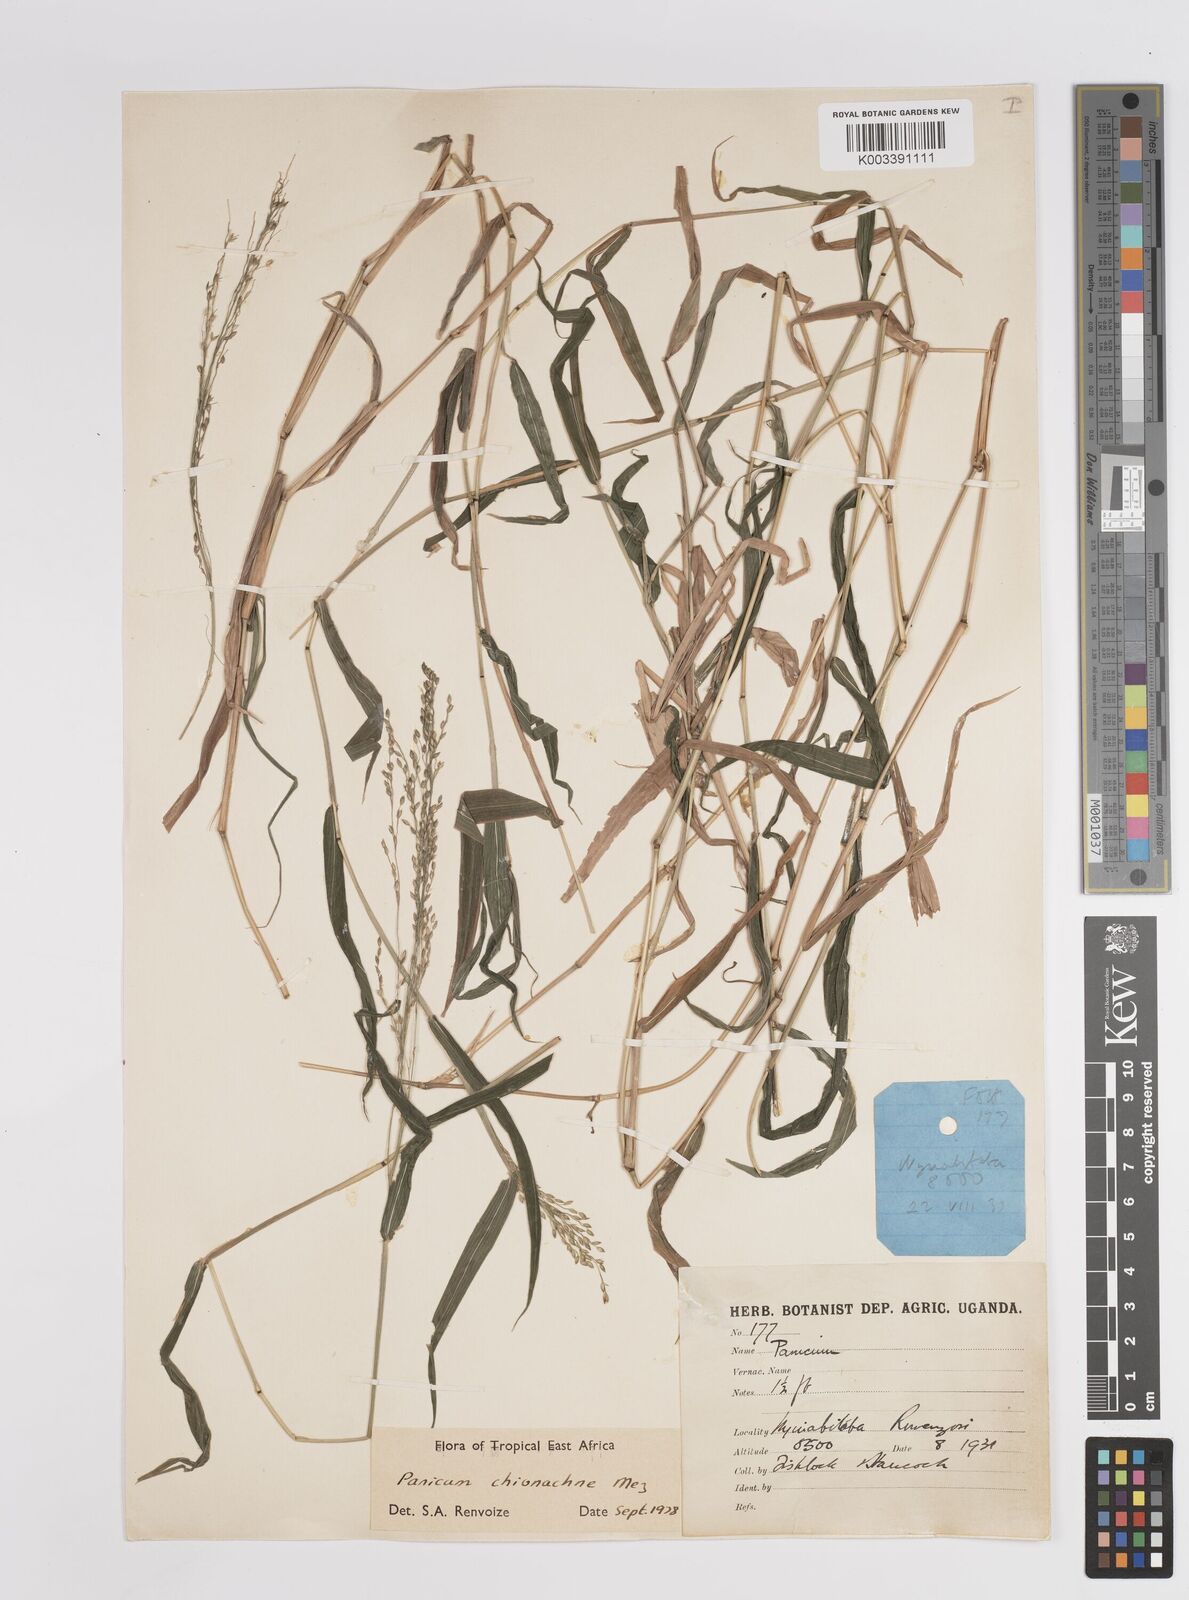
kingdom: Plantae
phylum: Tracheophyta
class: Liliopsida
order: Poales
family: Poaceae
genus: Panicum
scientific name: Panicum chionachne
